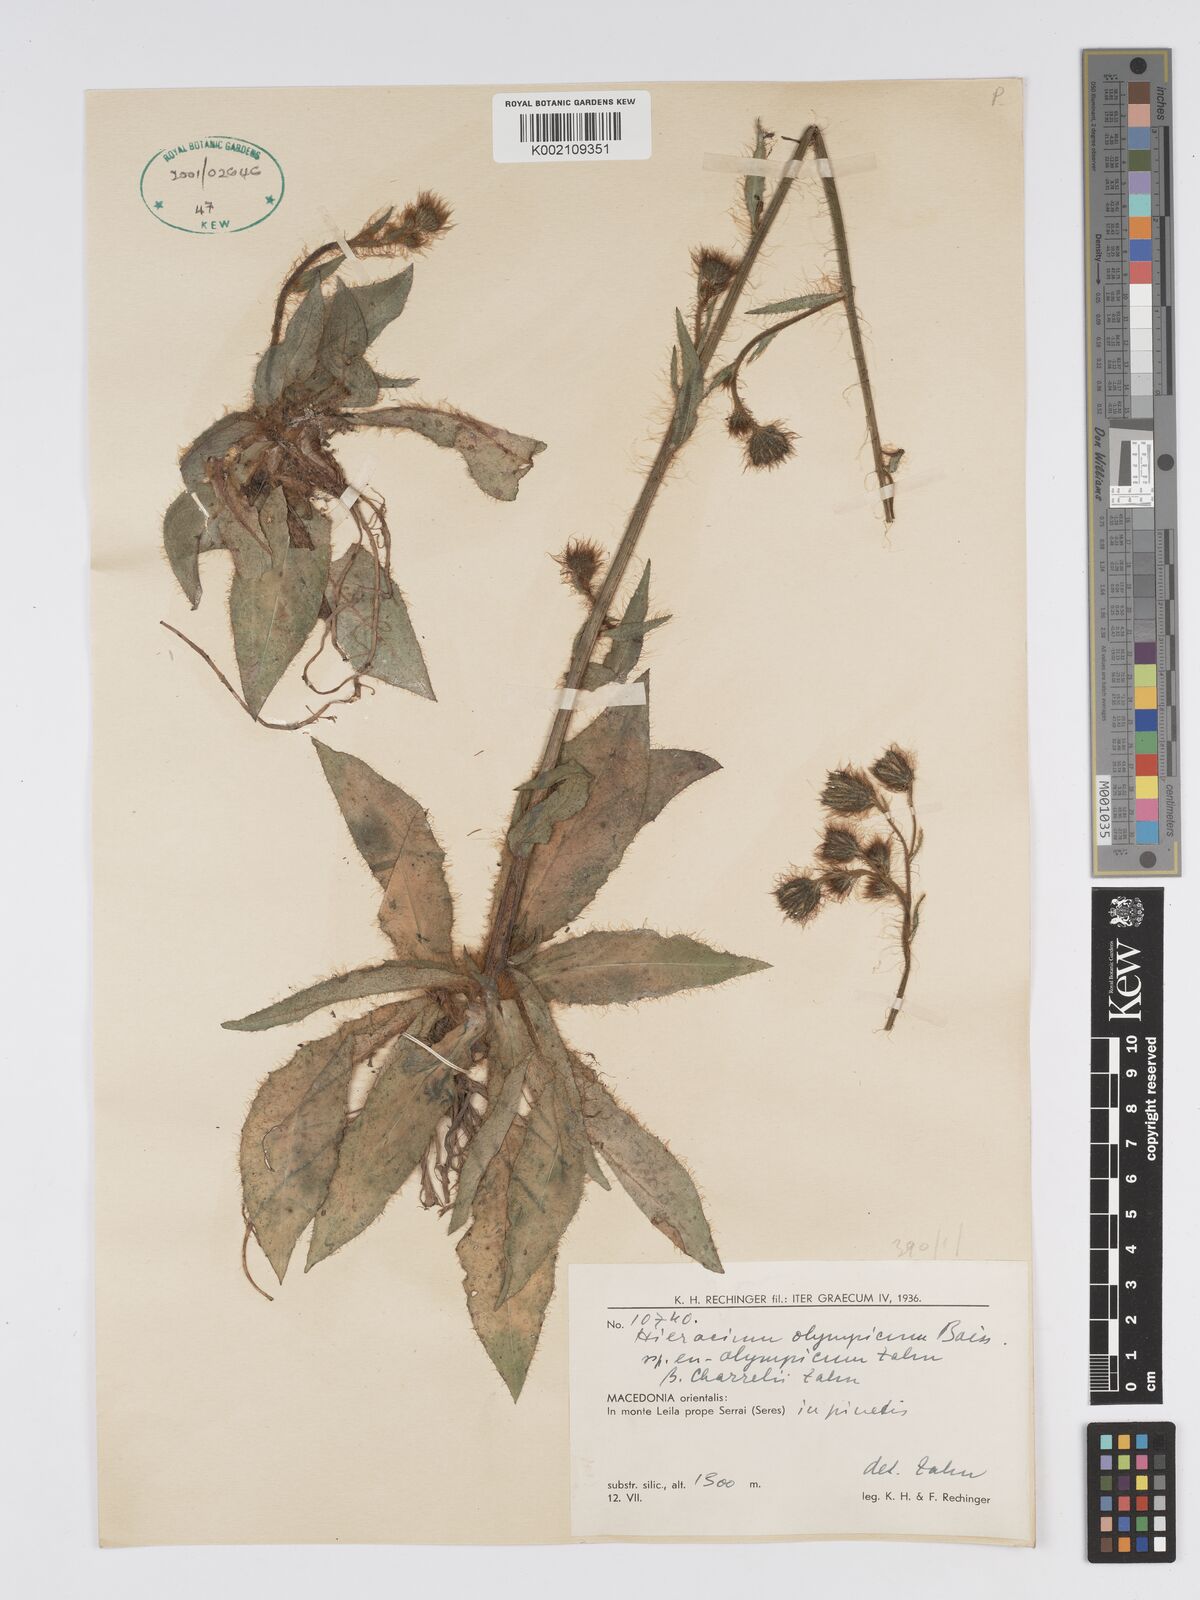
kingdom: Plantae
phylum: Tracheophyta
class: Magnoliopsida
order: Asterales
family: Asteraceae
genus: Hieracium
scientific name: Hieracium olympicum
